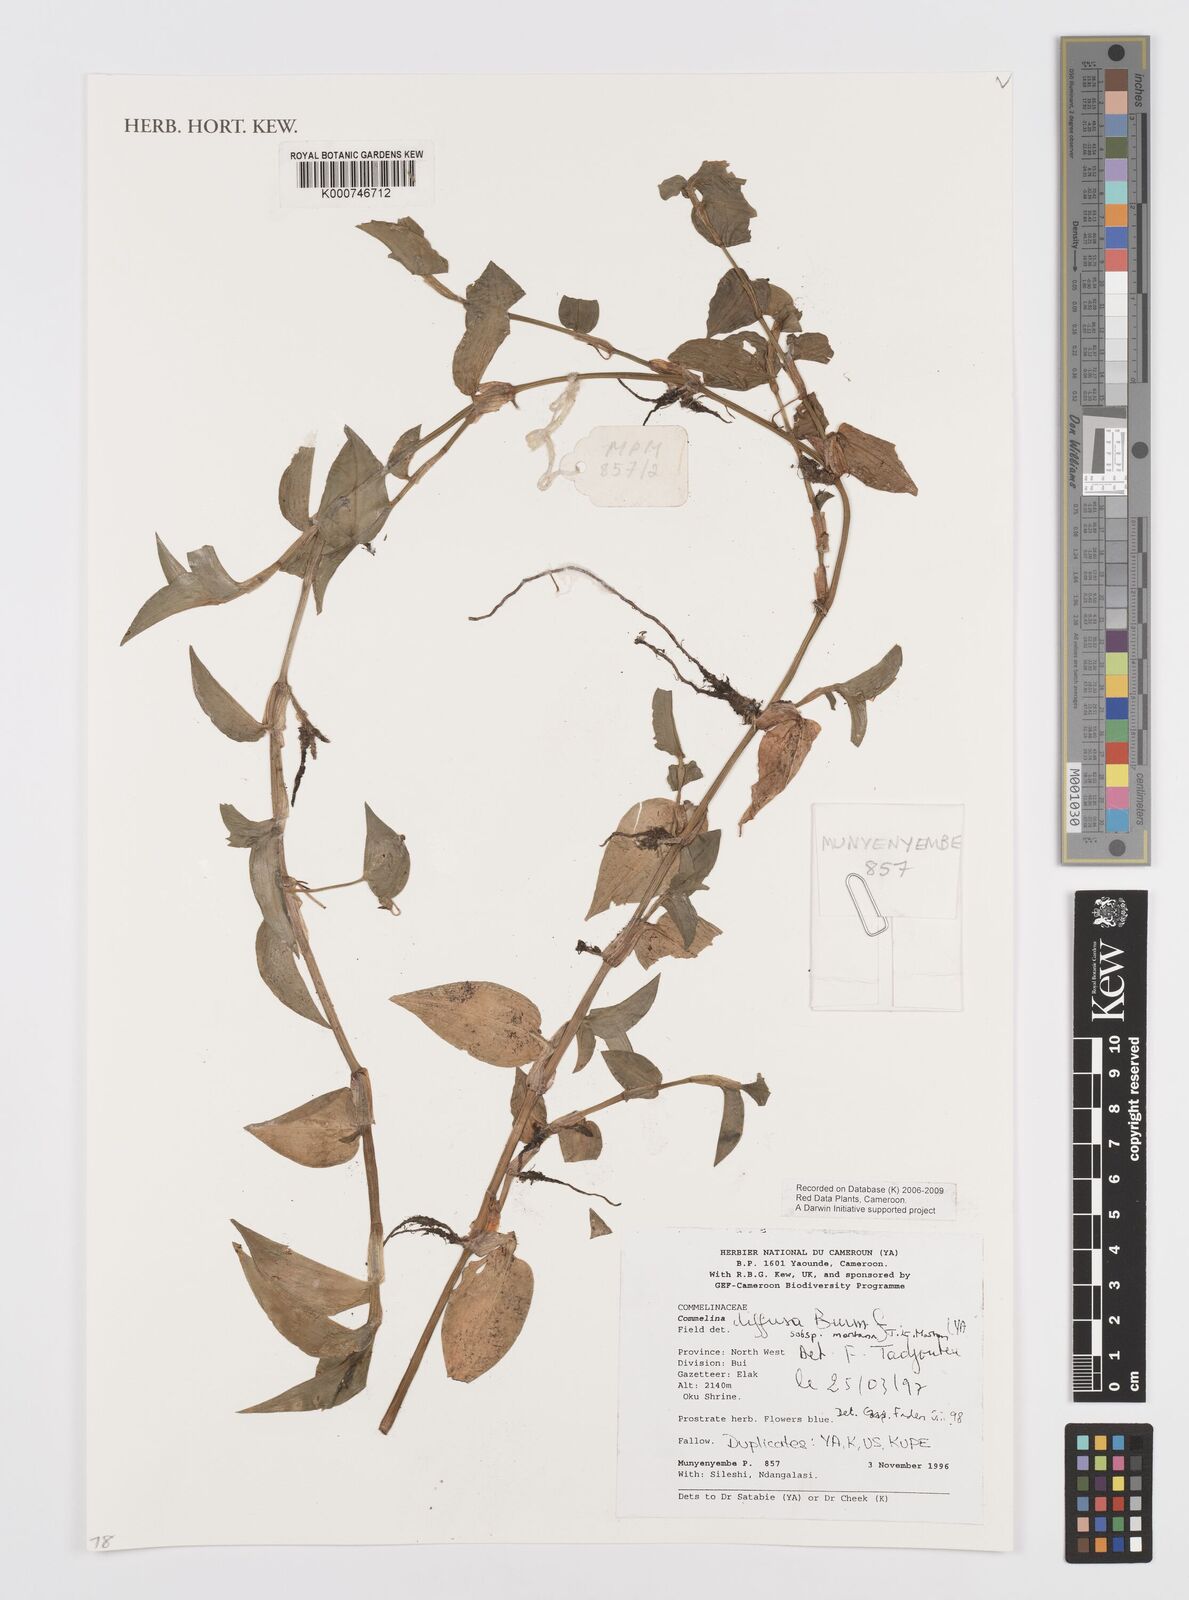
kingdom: Plantae
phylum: Tracheophyta
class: Liliopsida
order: Commelinales
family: Commelinaceae
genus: Commelina
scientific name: Commelina diffusa
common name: Climbing dayflower
